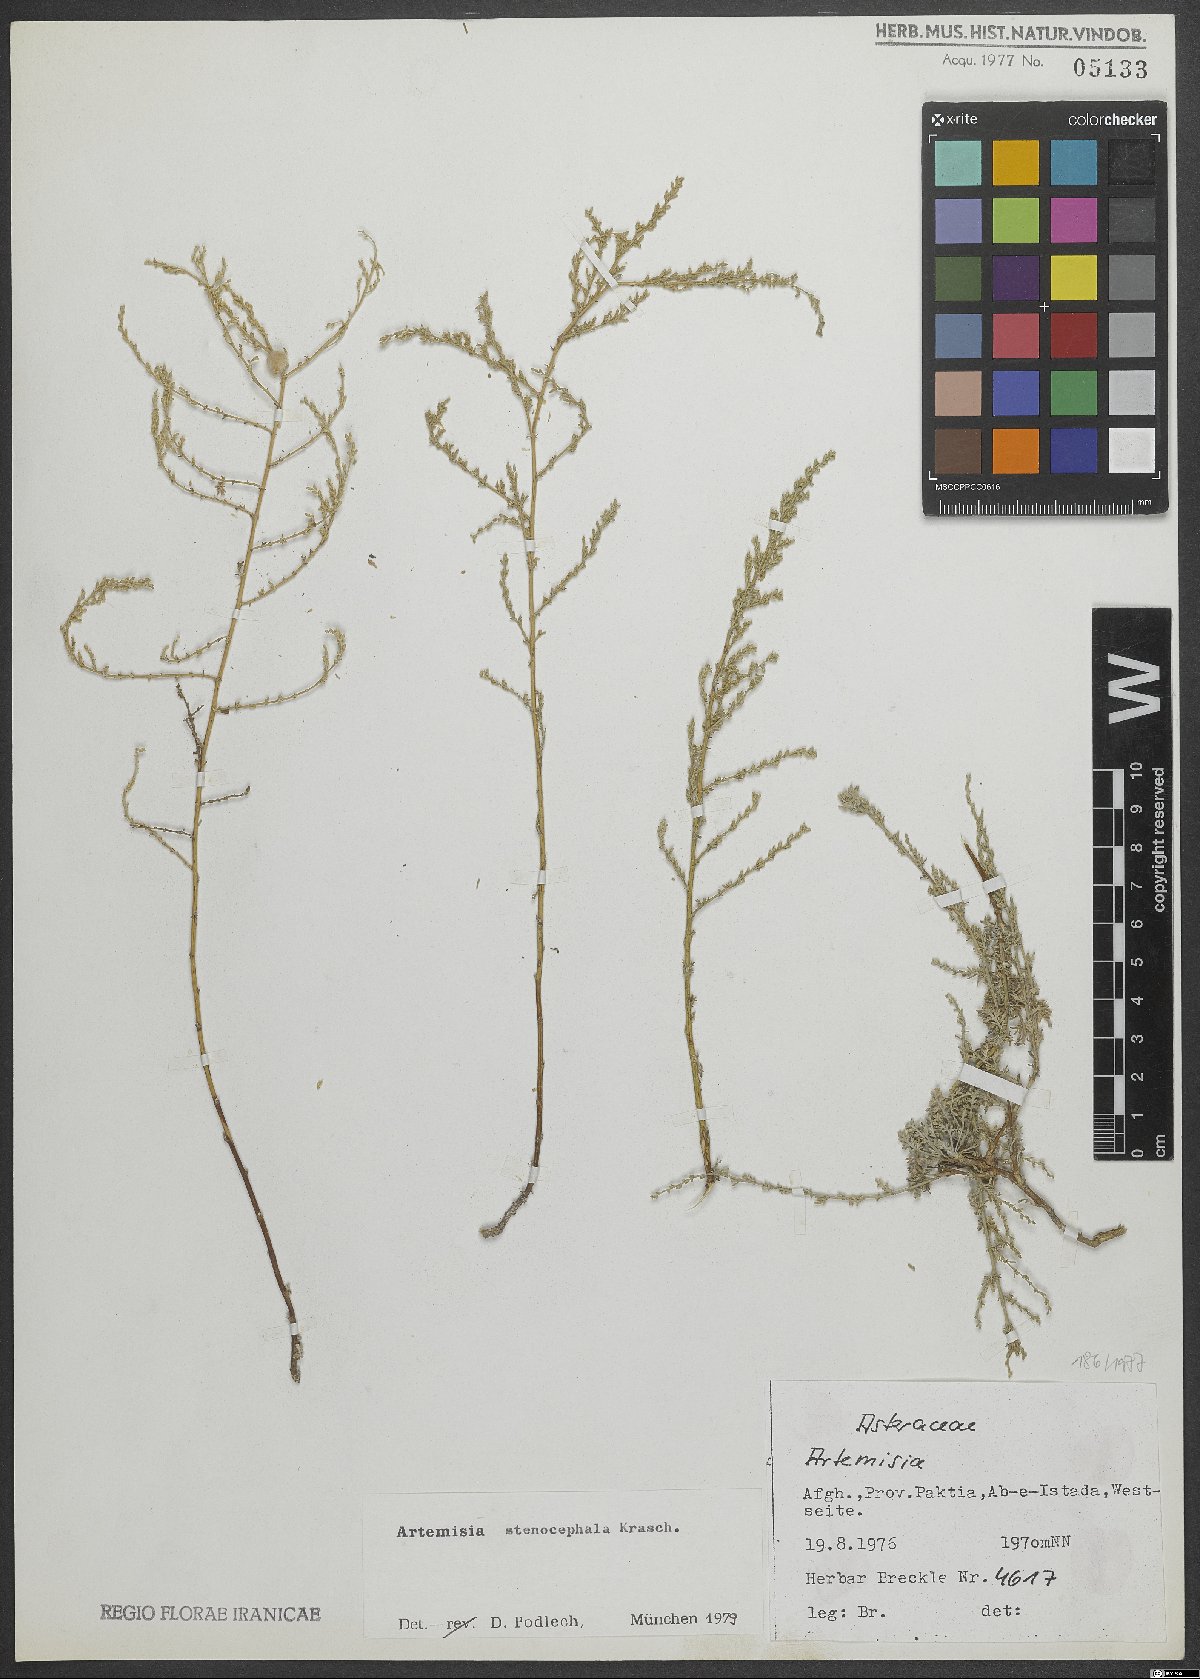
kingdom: Plantae
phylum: Tracheophyta
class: Magnoliopsida
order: Asterales
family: Asteraceae
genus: Artemisia
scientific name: Artemisia stenocephala
